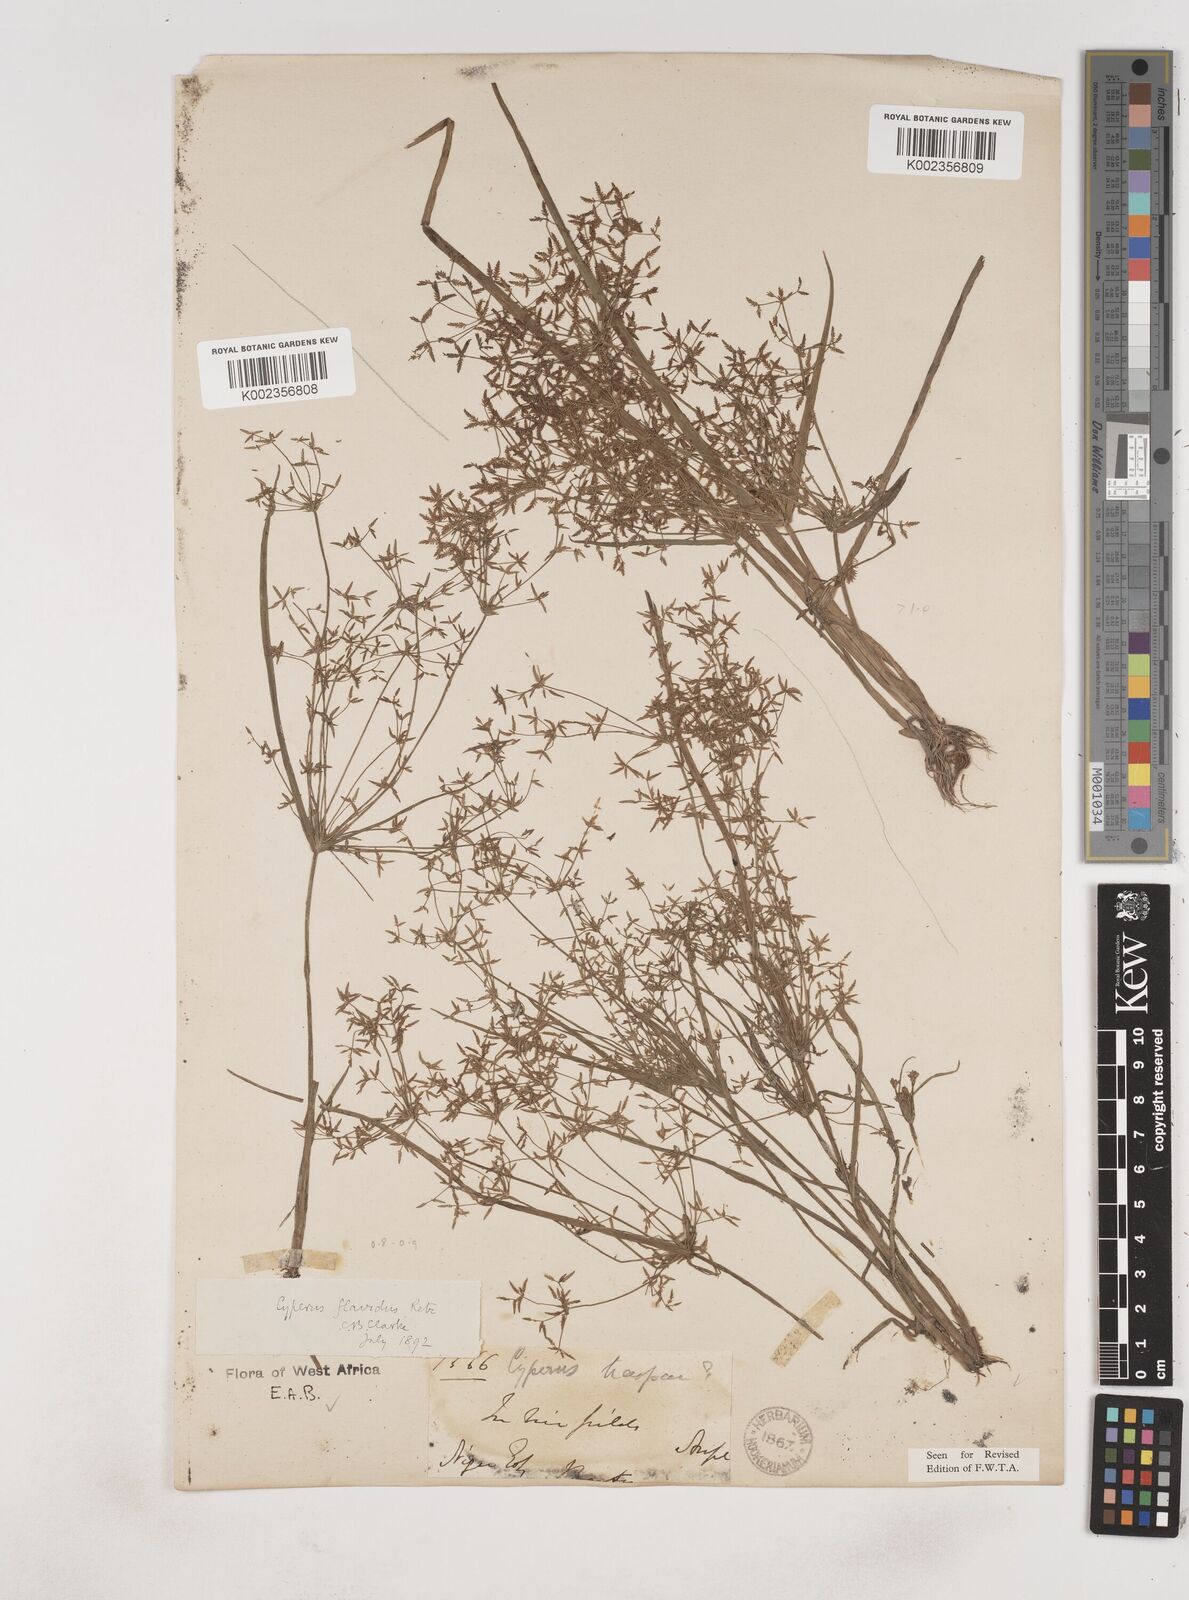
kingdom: Plantae
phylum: Tracheophyta
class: Liliopsida
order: Poales
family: Cyperaceae
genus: Cyperus
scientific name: Cyperus tenuispica
